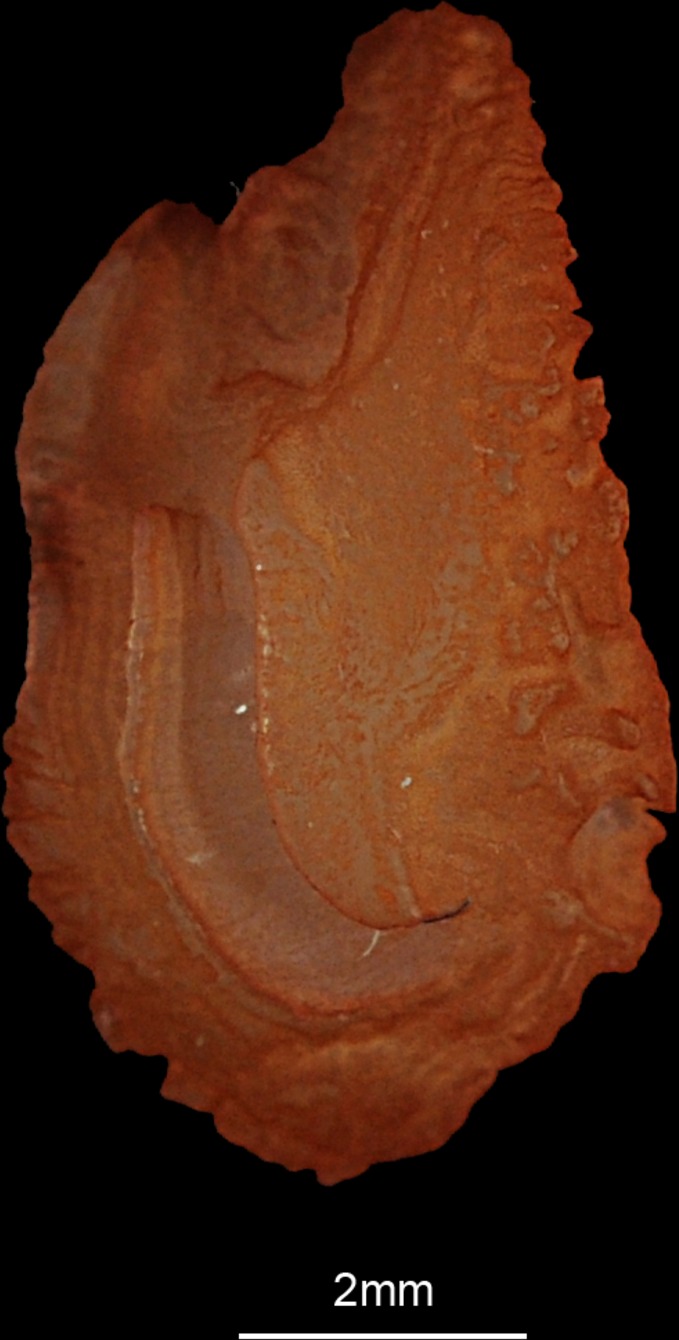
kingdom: Animalia
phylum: Chordata
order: Perciformes
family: Gerreidae
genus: Gerres
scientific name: Gerres oyena
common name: Common silver-biddy
